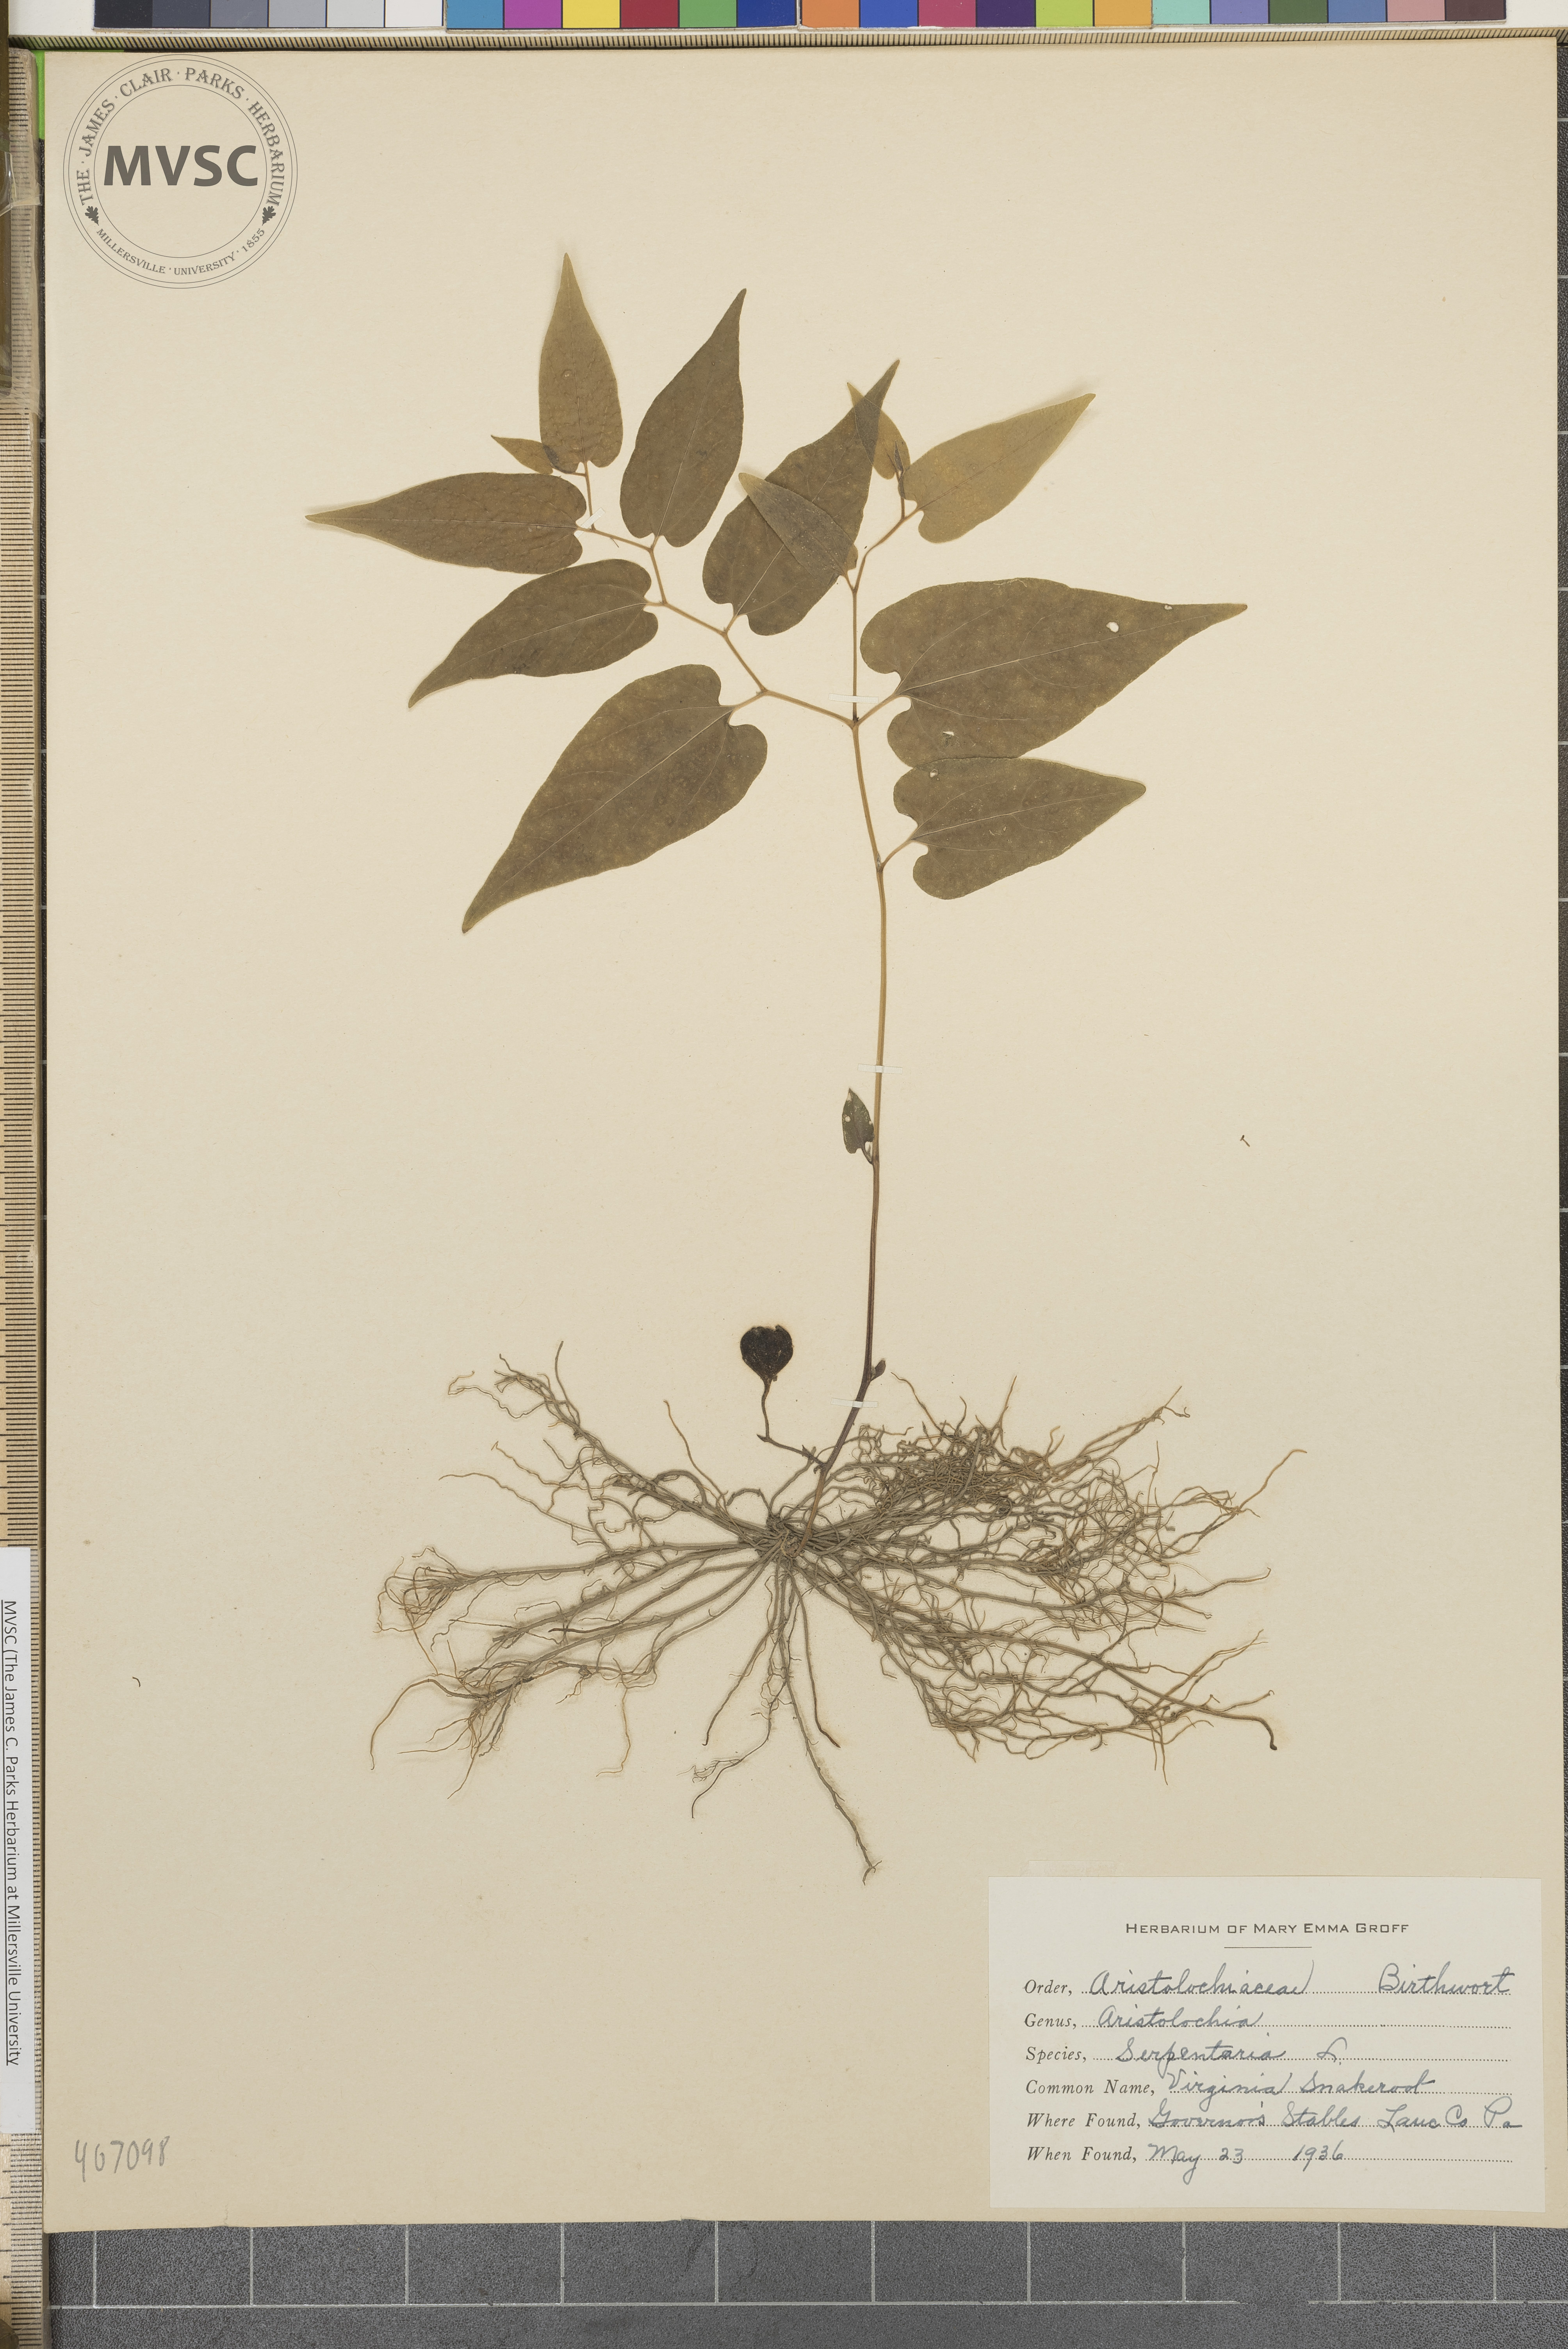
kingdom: Plantae
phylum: Tracheophyta
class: Magnoliopsida
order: Piperales
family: Aristolochiaceae
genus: Endodeca
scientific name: Endodeca serpentaria
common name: Virginia Snakeroot
